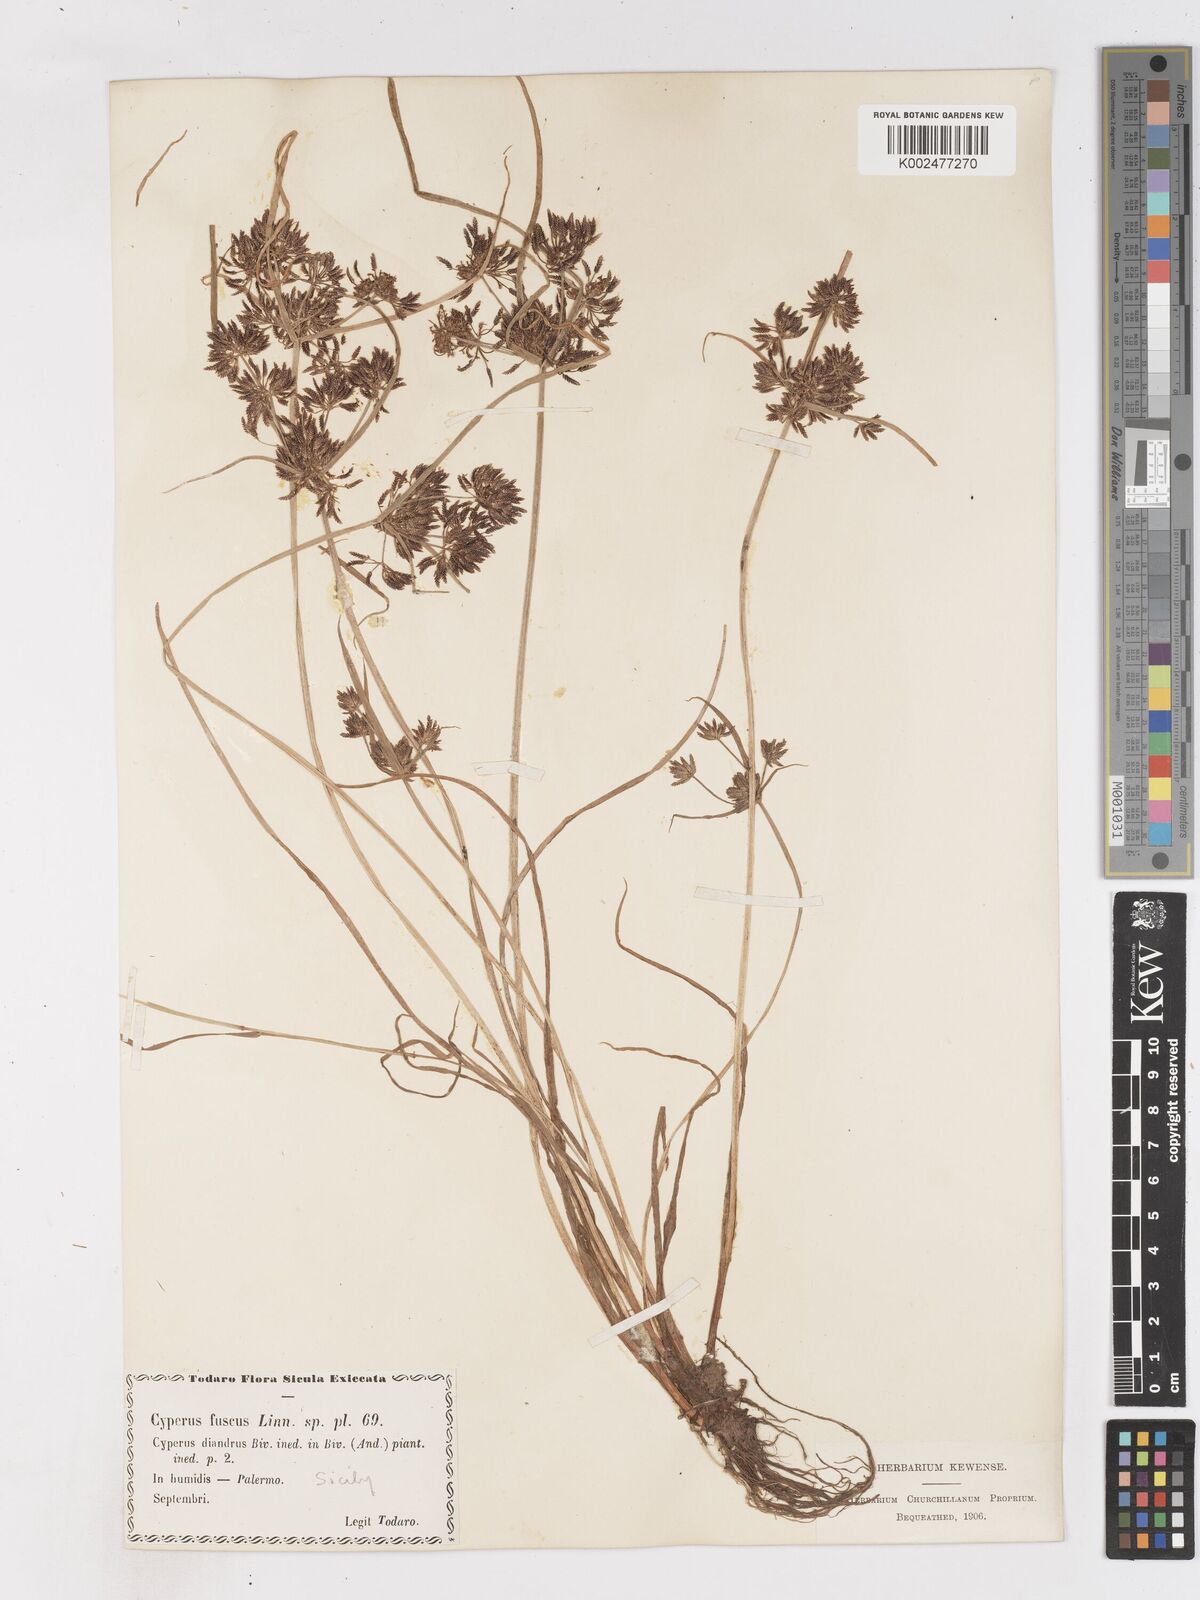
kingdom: Plantae
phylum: Tracheophyta
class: Liliopsida
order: Poales
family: Cyperaceae
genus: Cyperus
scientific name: Cyperus fuscus
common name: Brown galingale
